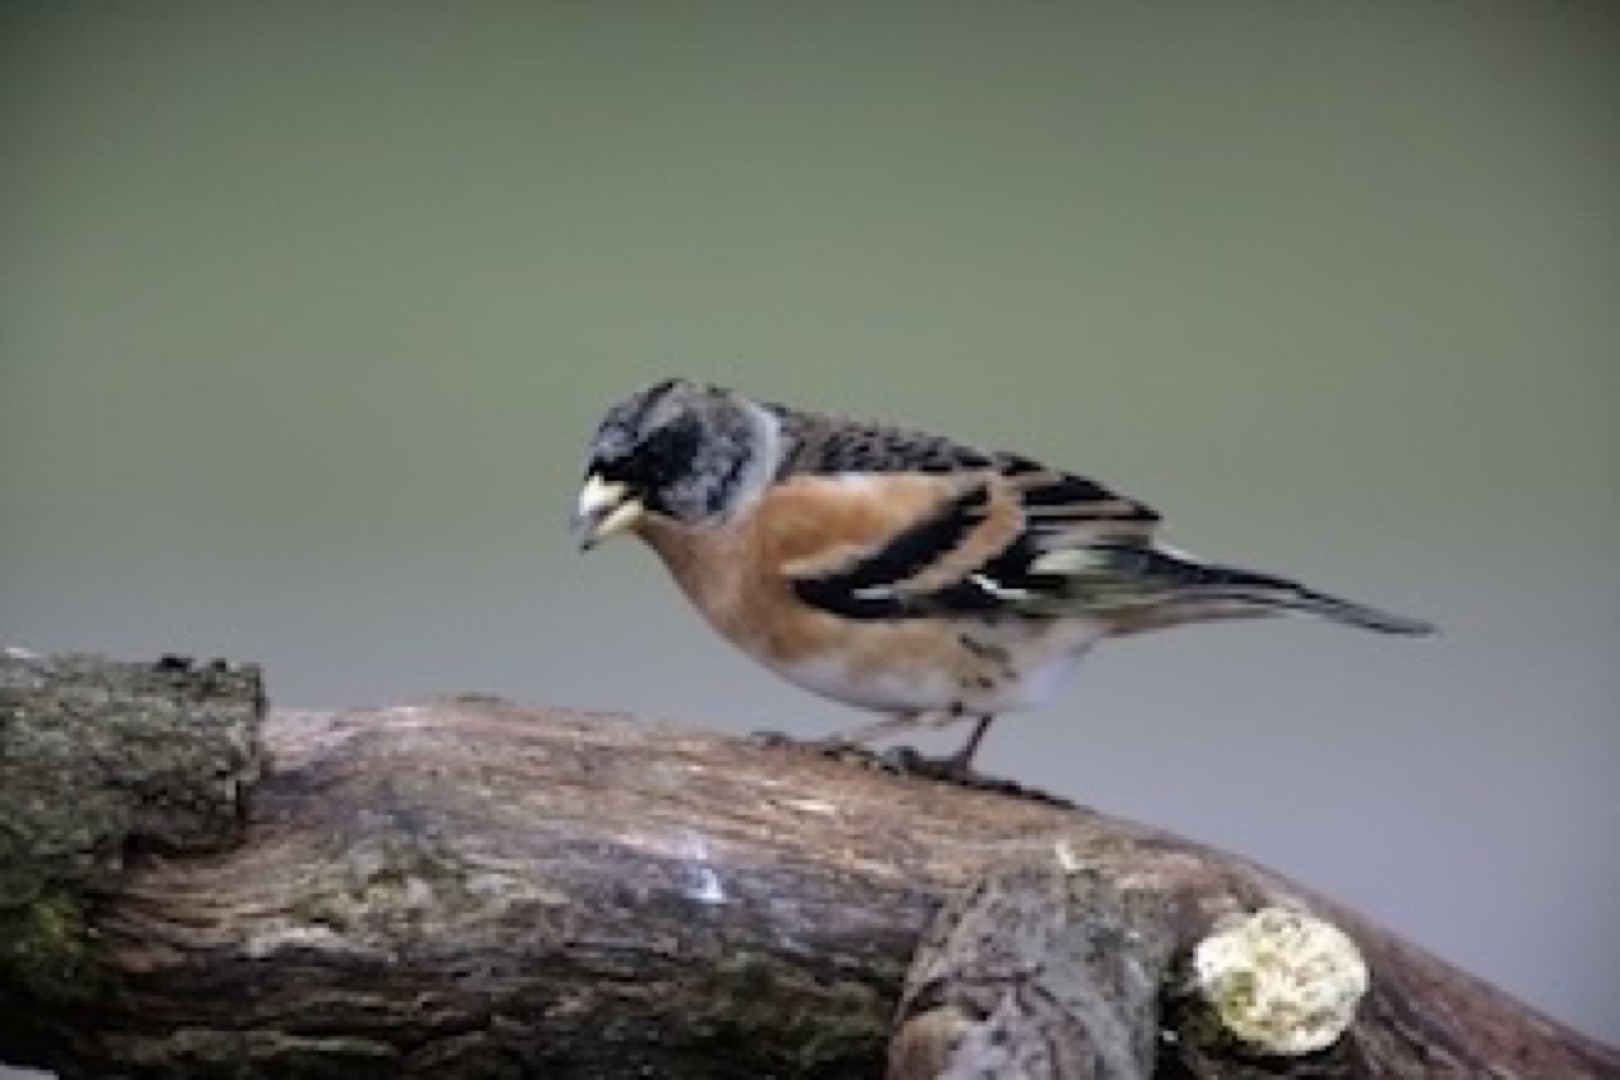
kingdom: Animalia
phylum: Chordata
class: Aves
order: Passeriformes
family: Fringillidae
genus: Fringilla
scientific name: Fringilla montifringilla
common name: Kvækerfinke
